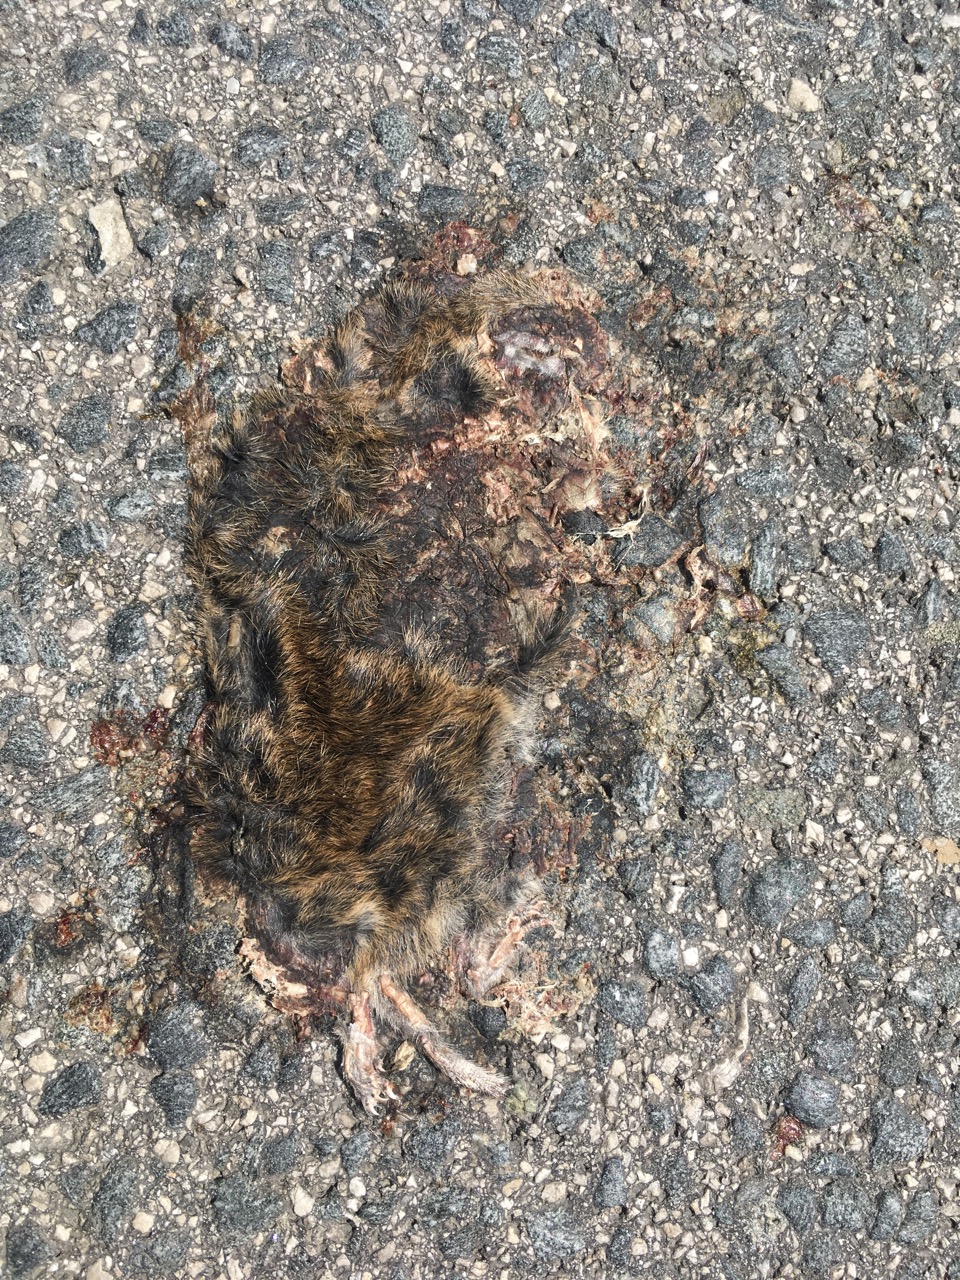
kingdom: Animalia
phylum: Chordata
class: Mammalia
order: Rodentia
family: Cricetidae
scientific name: Cricetidae
